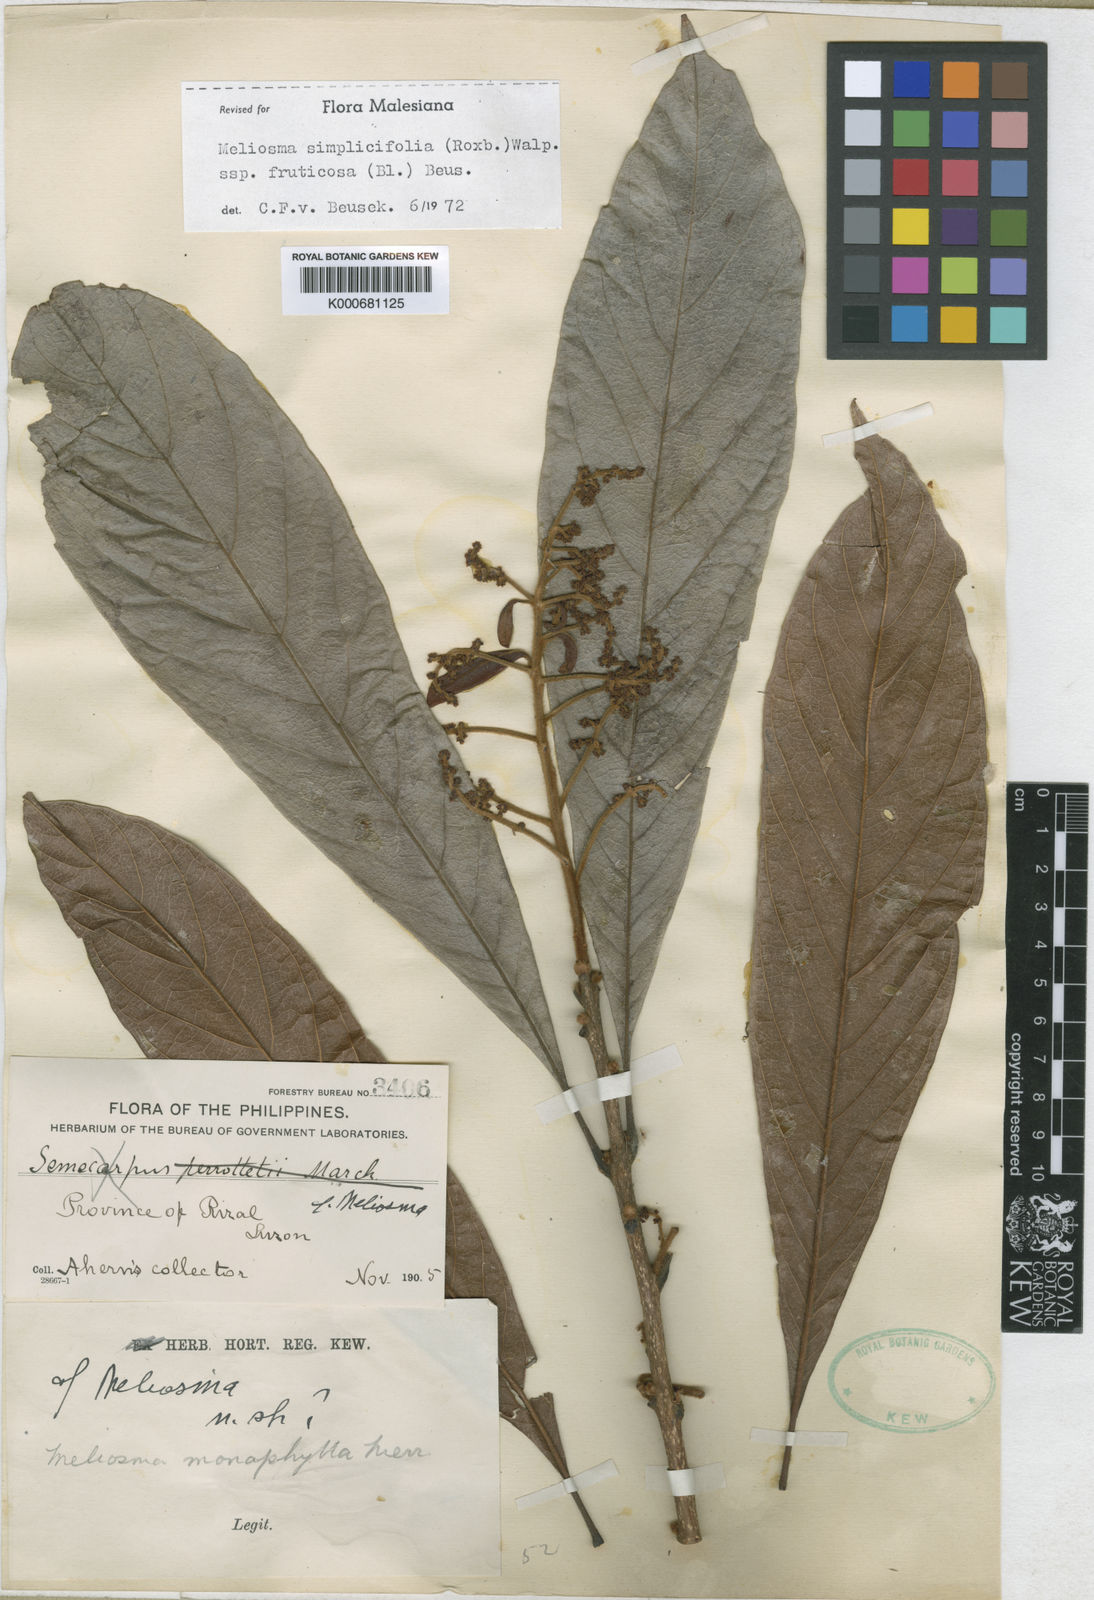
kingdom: Plantae
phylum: Tracheophyta
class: Magnoliopsida
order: Proteales
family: Sabiaceae
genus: Meliosma
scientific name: Meliosma simplicifolia
